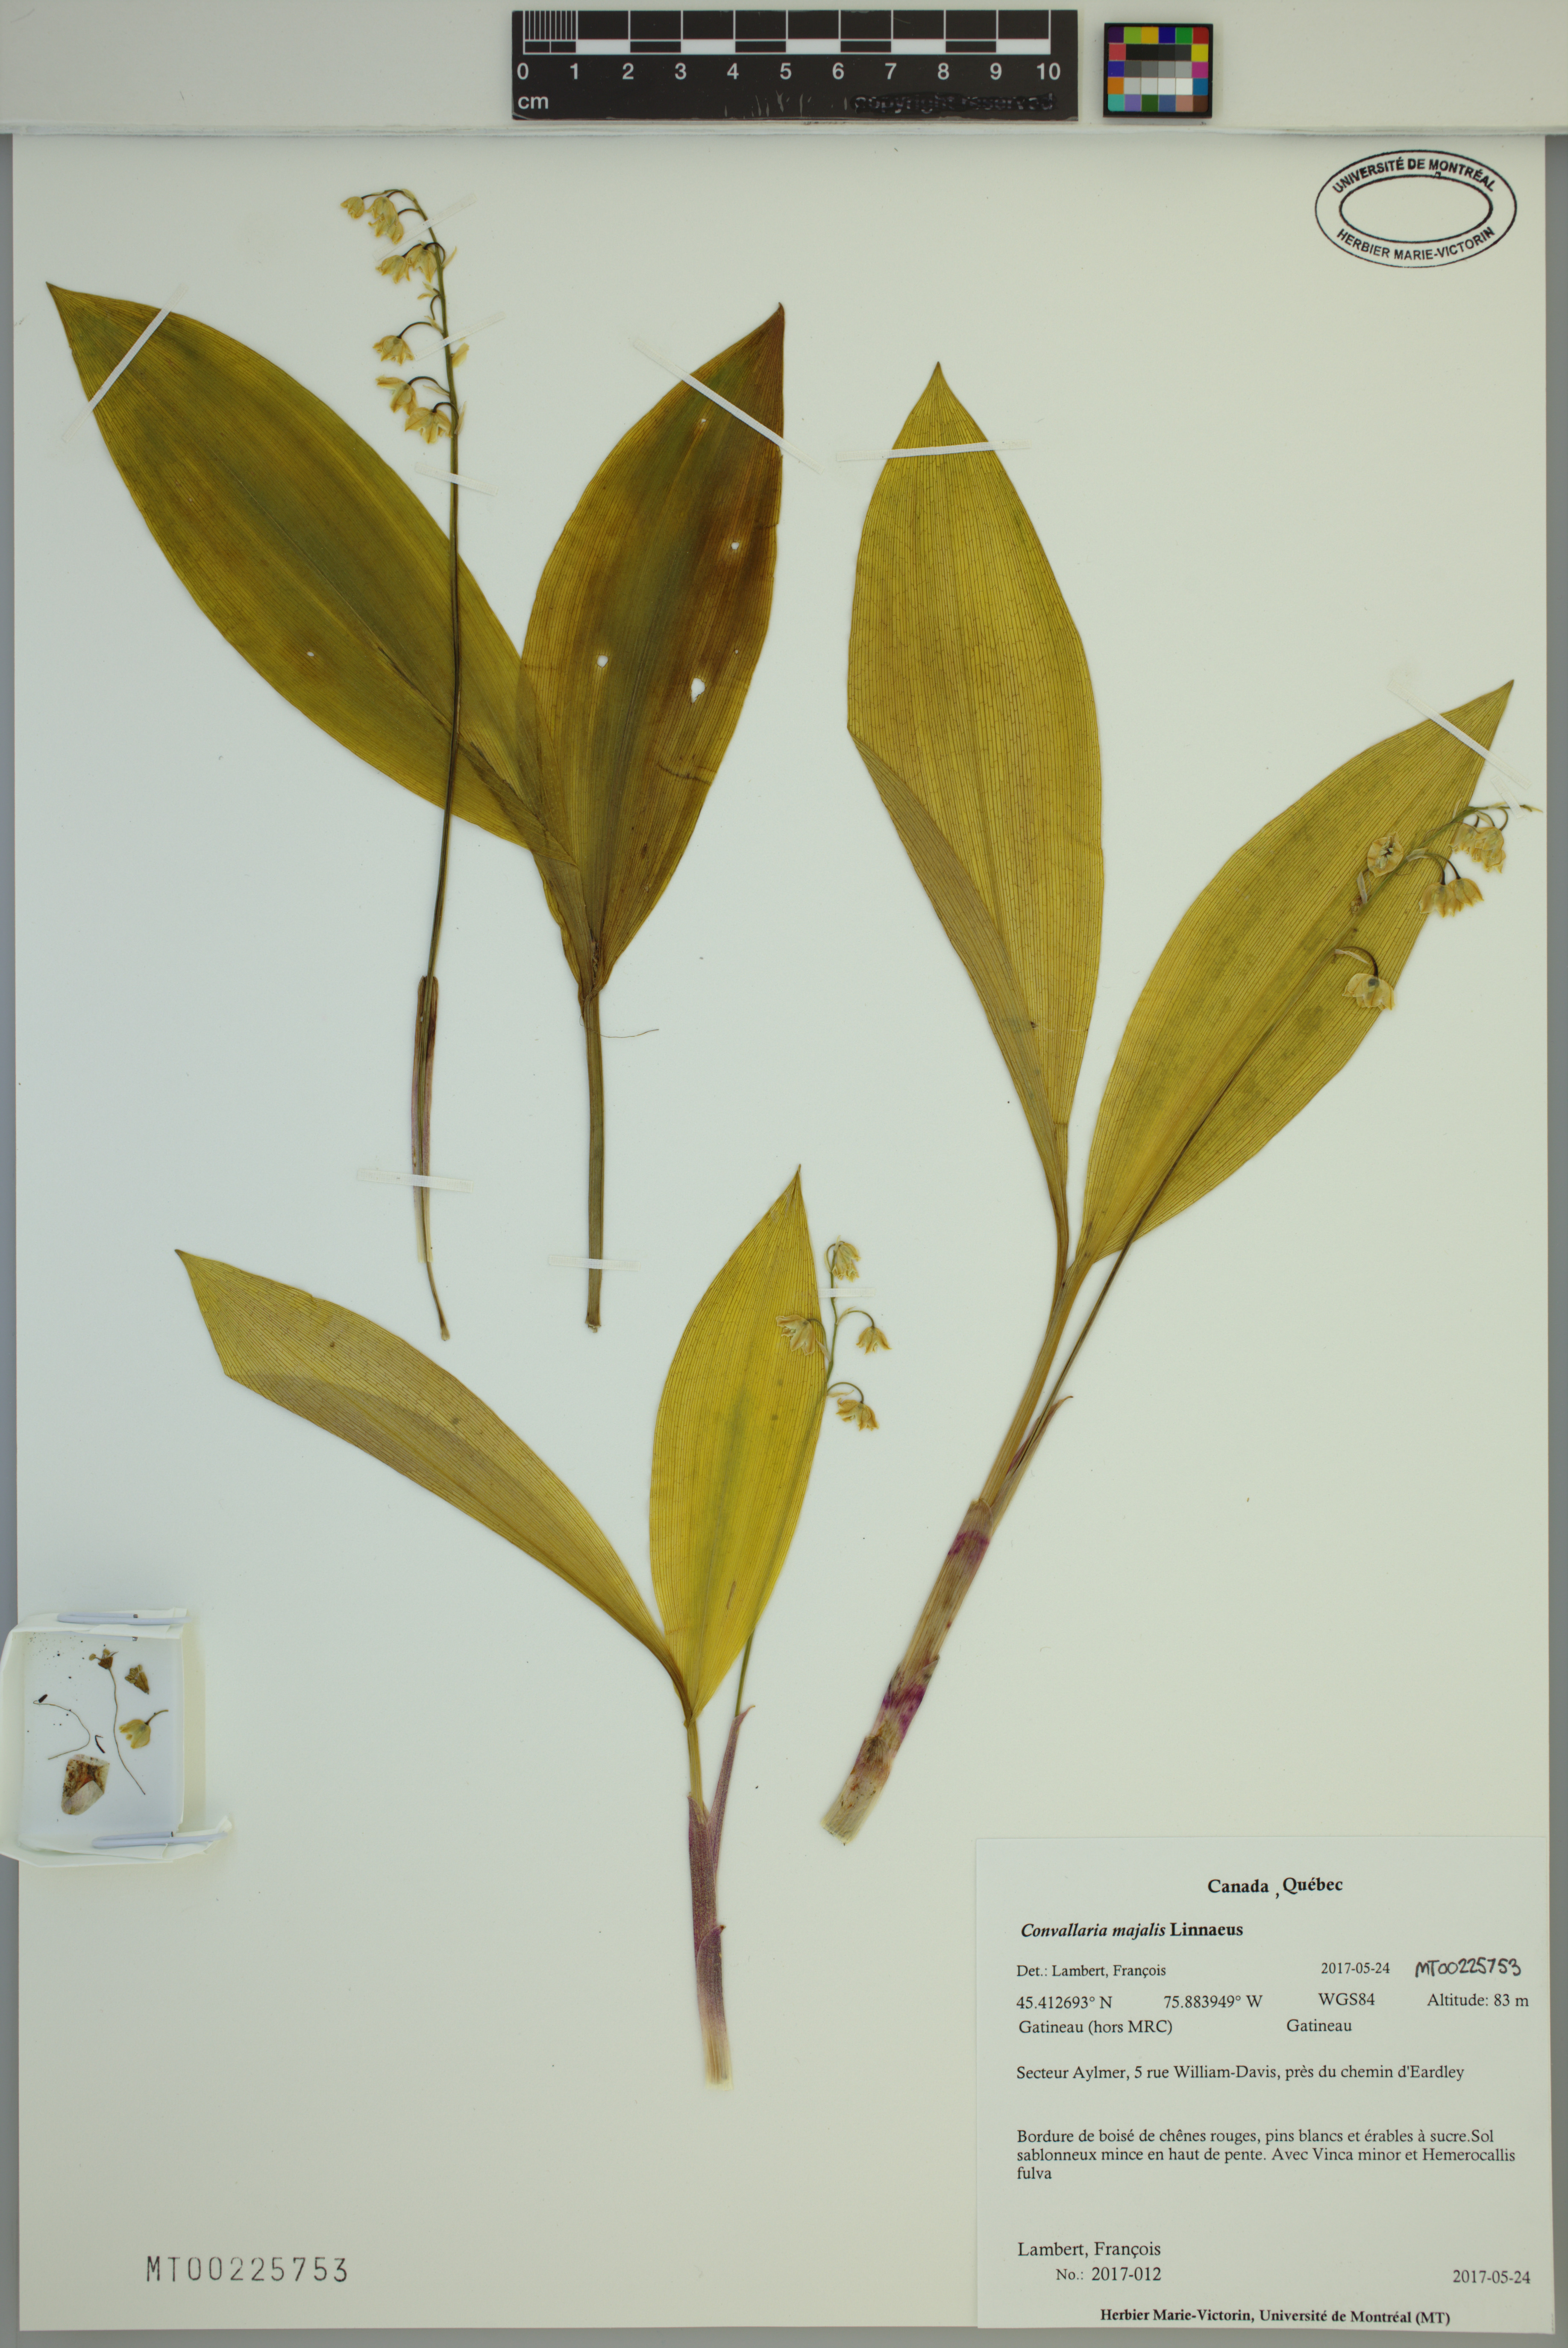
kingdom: Plantae
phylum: Tracheophyta
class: Liliopsida
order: Asparagales
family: Asparagaceae
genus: Convallaria
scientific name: Convallaria majalis
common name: Lily-of-the-valley
